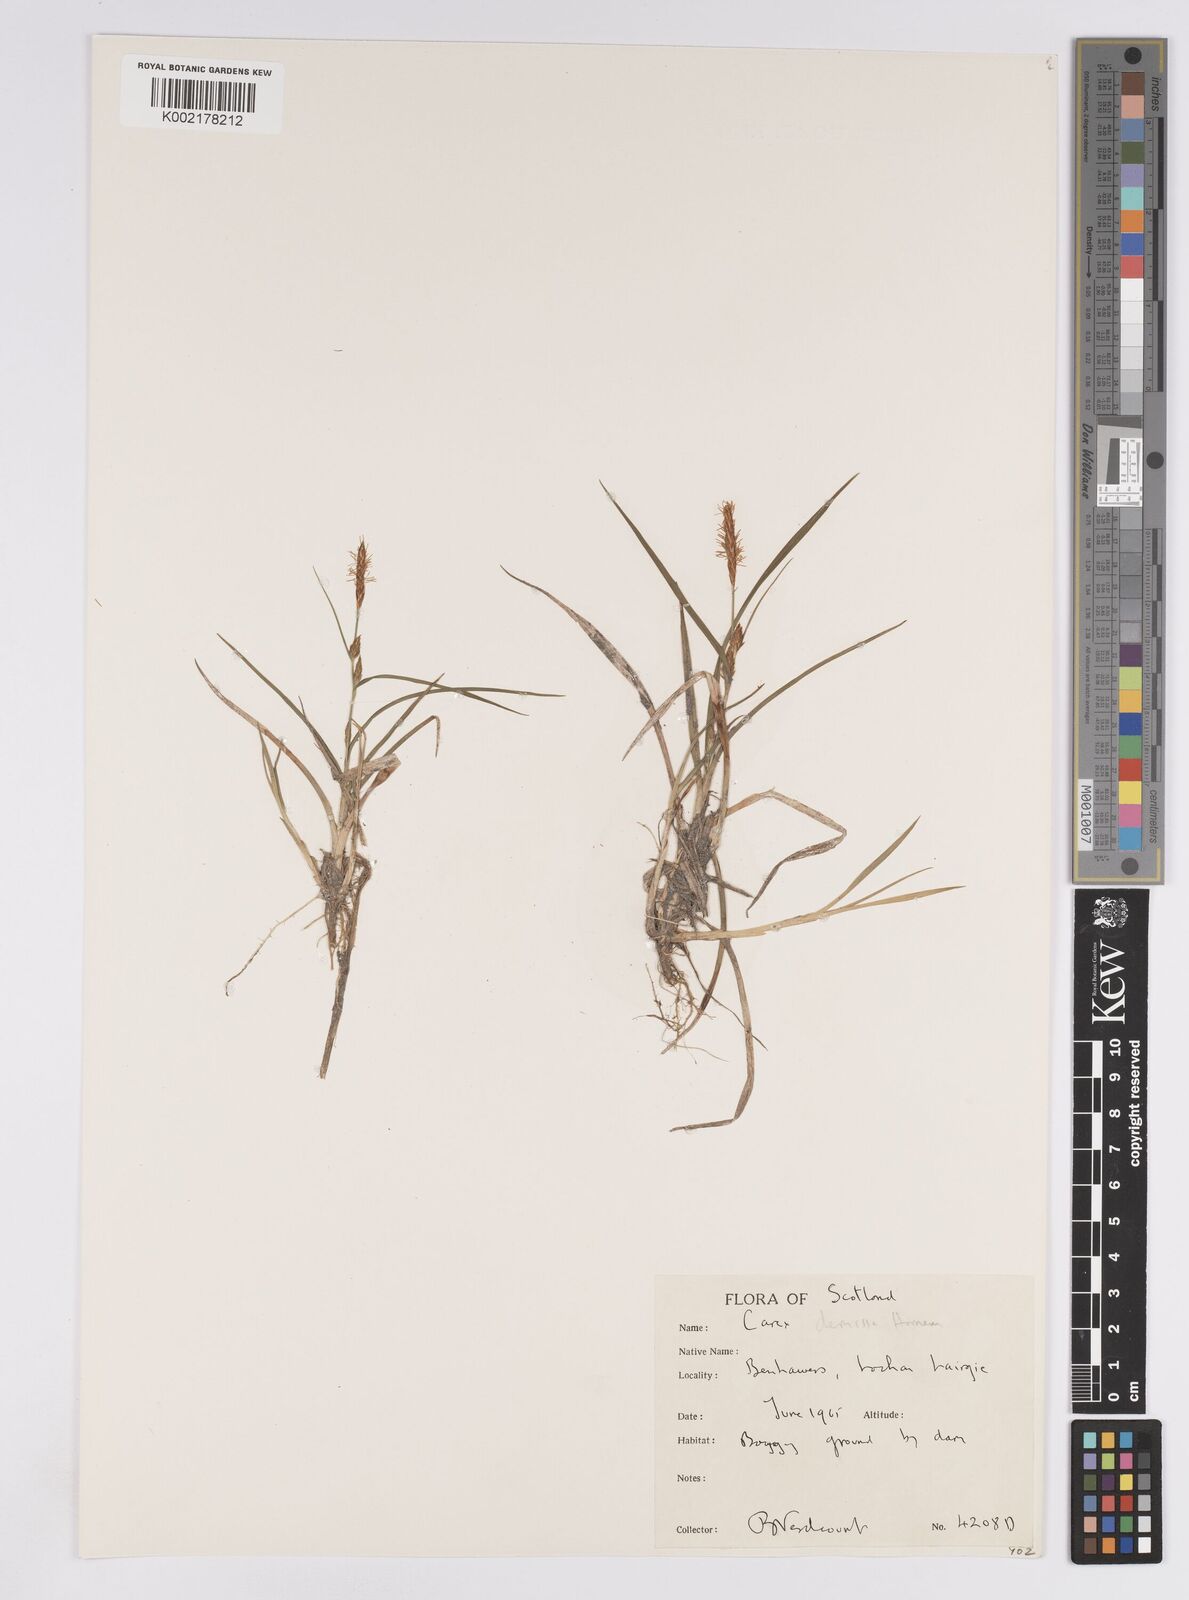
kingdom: Plantae
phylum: Tracheophyta
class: Liliopsida
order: Poales
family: Cyperaceae
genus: Carex
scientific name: Carex demissa
